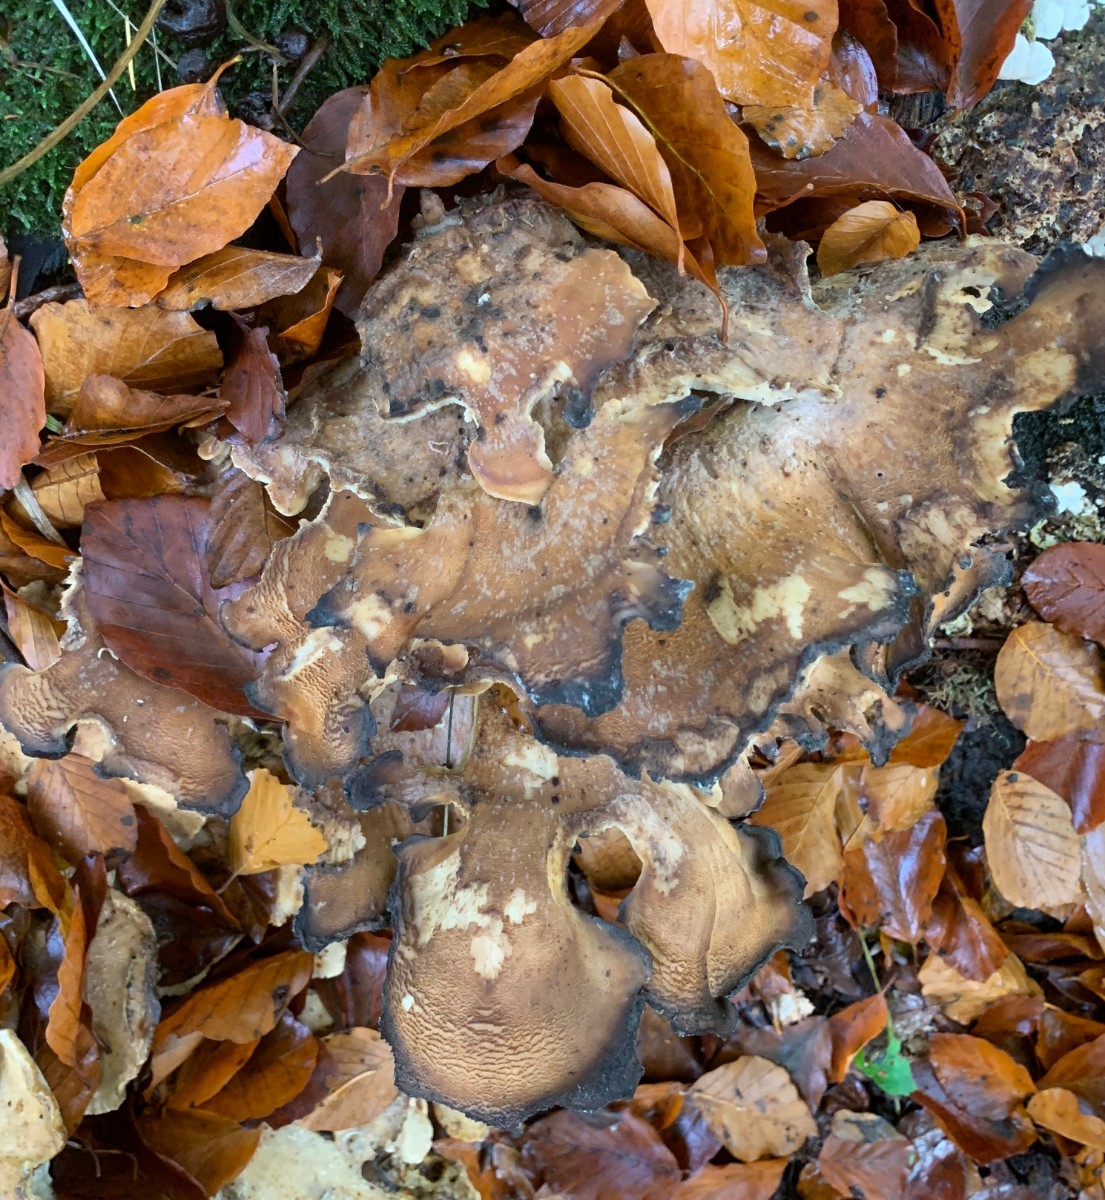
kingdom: Fungi
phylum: Basidiomycota
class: Agaricomycetes
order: Polyporales
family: Meripilaceae
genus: Meripilus
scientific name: Meripilus giganteus
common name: kæmpeporesvamp
